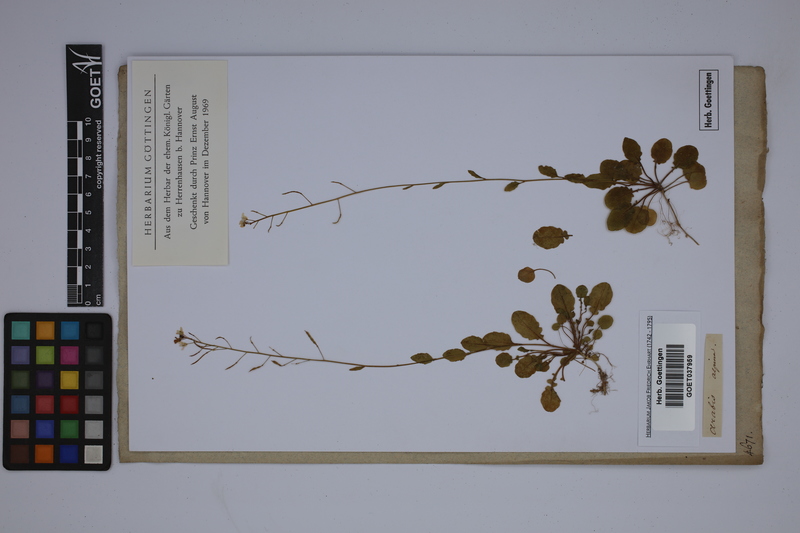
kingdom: Plantae
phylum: Tracheophyta
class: Magnoliopsida
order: Brassicales
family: Brassicaceae
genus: Arabis
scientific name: Arabis alpina
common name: Alpine rock-cress
